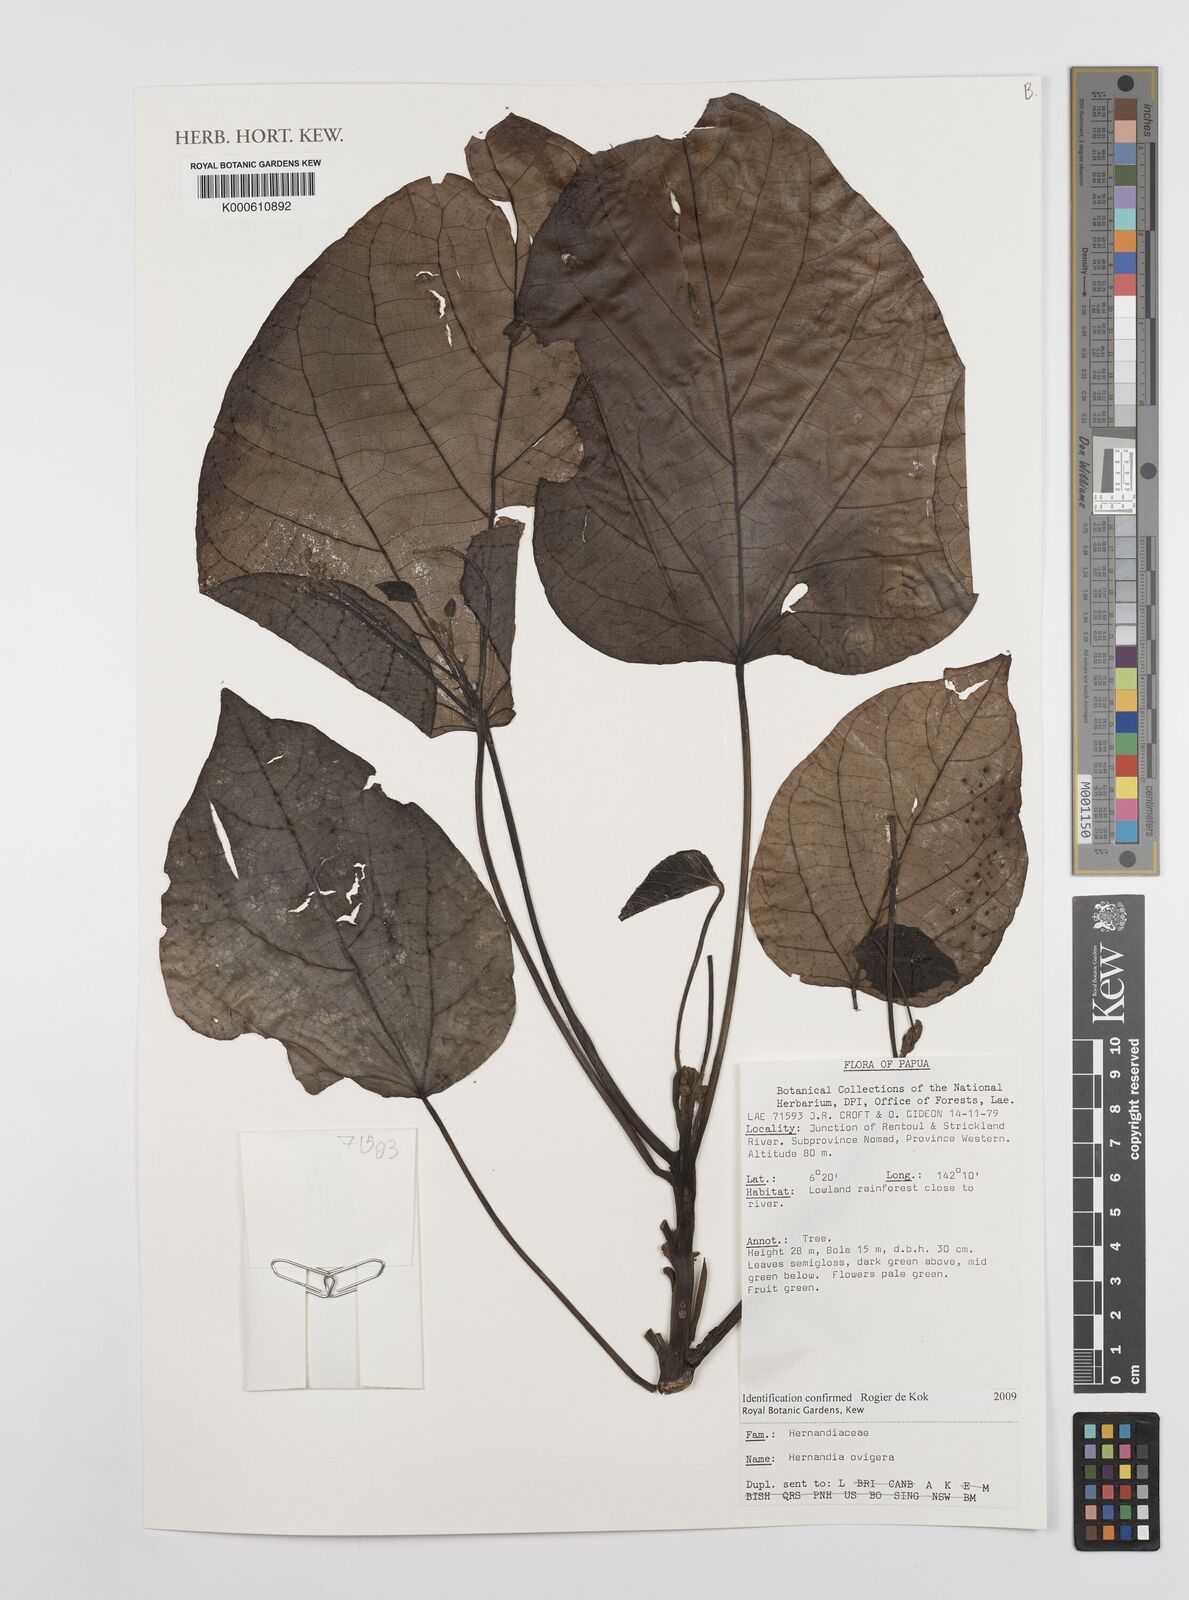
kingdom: Plantae
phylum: Tracheophyta
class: Magnoliopsida
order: Laurales
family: Hernandiaceae
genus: Hernandia
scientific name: Hernandia ovigera
